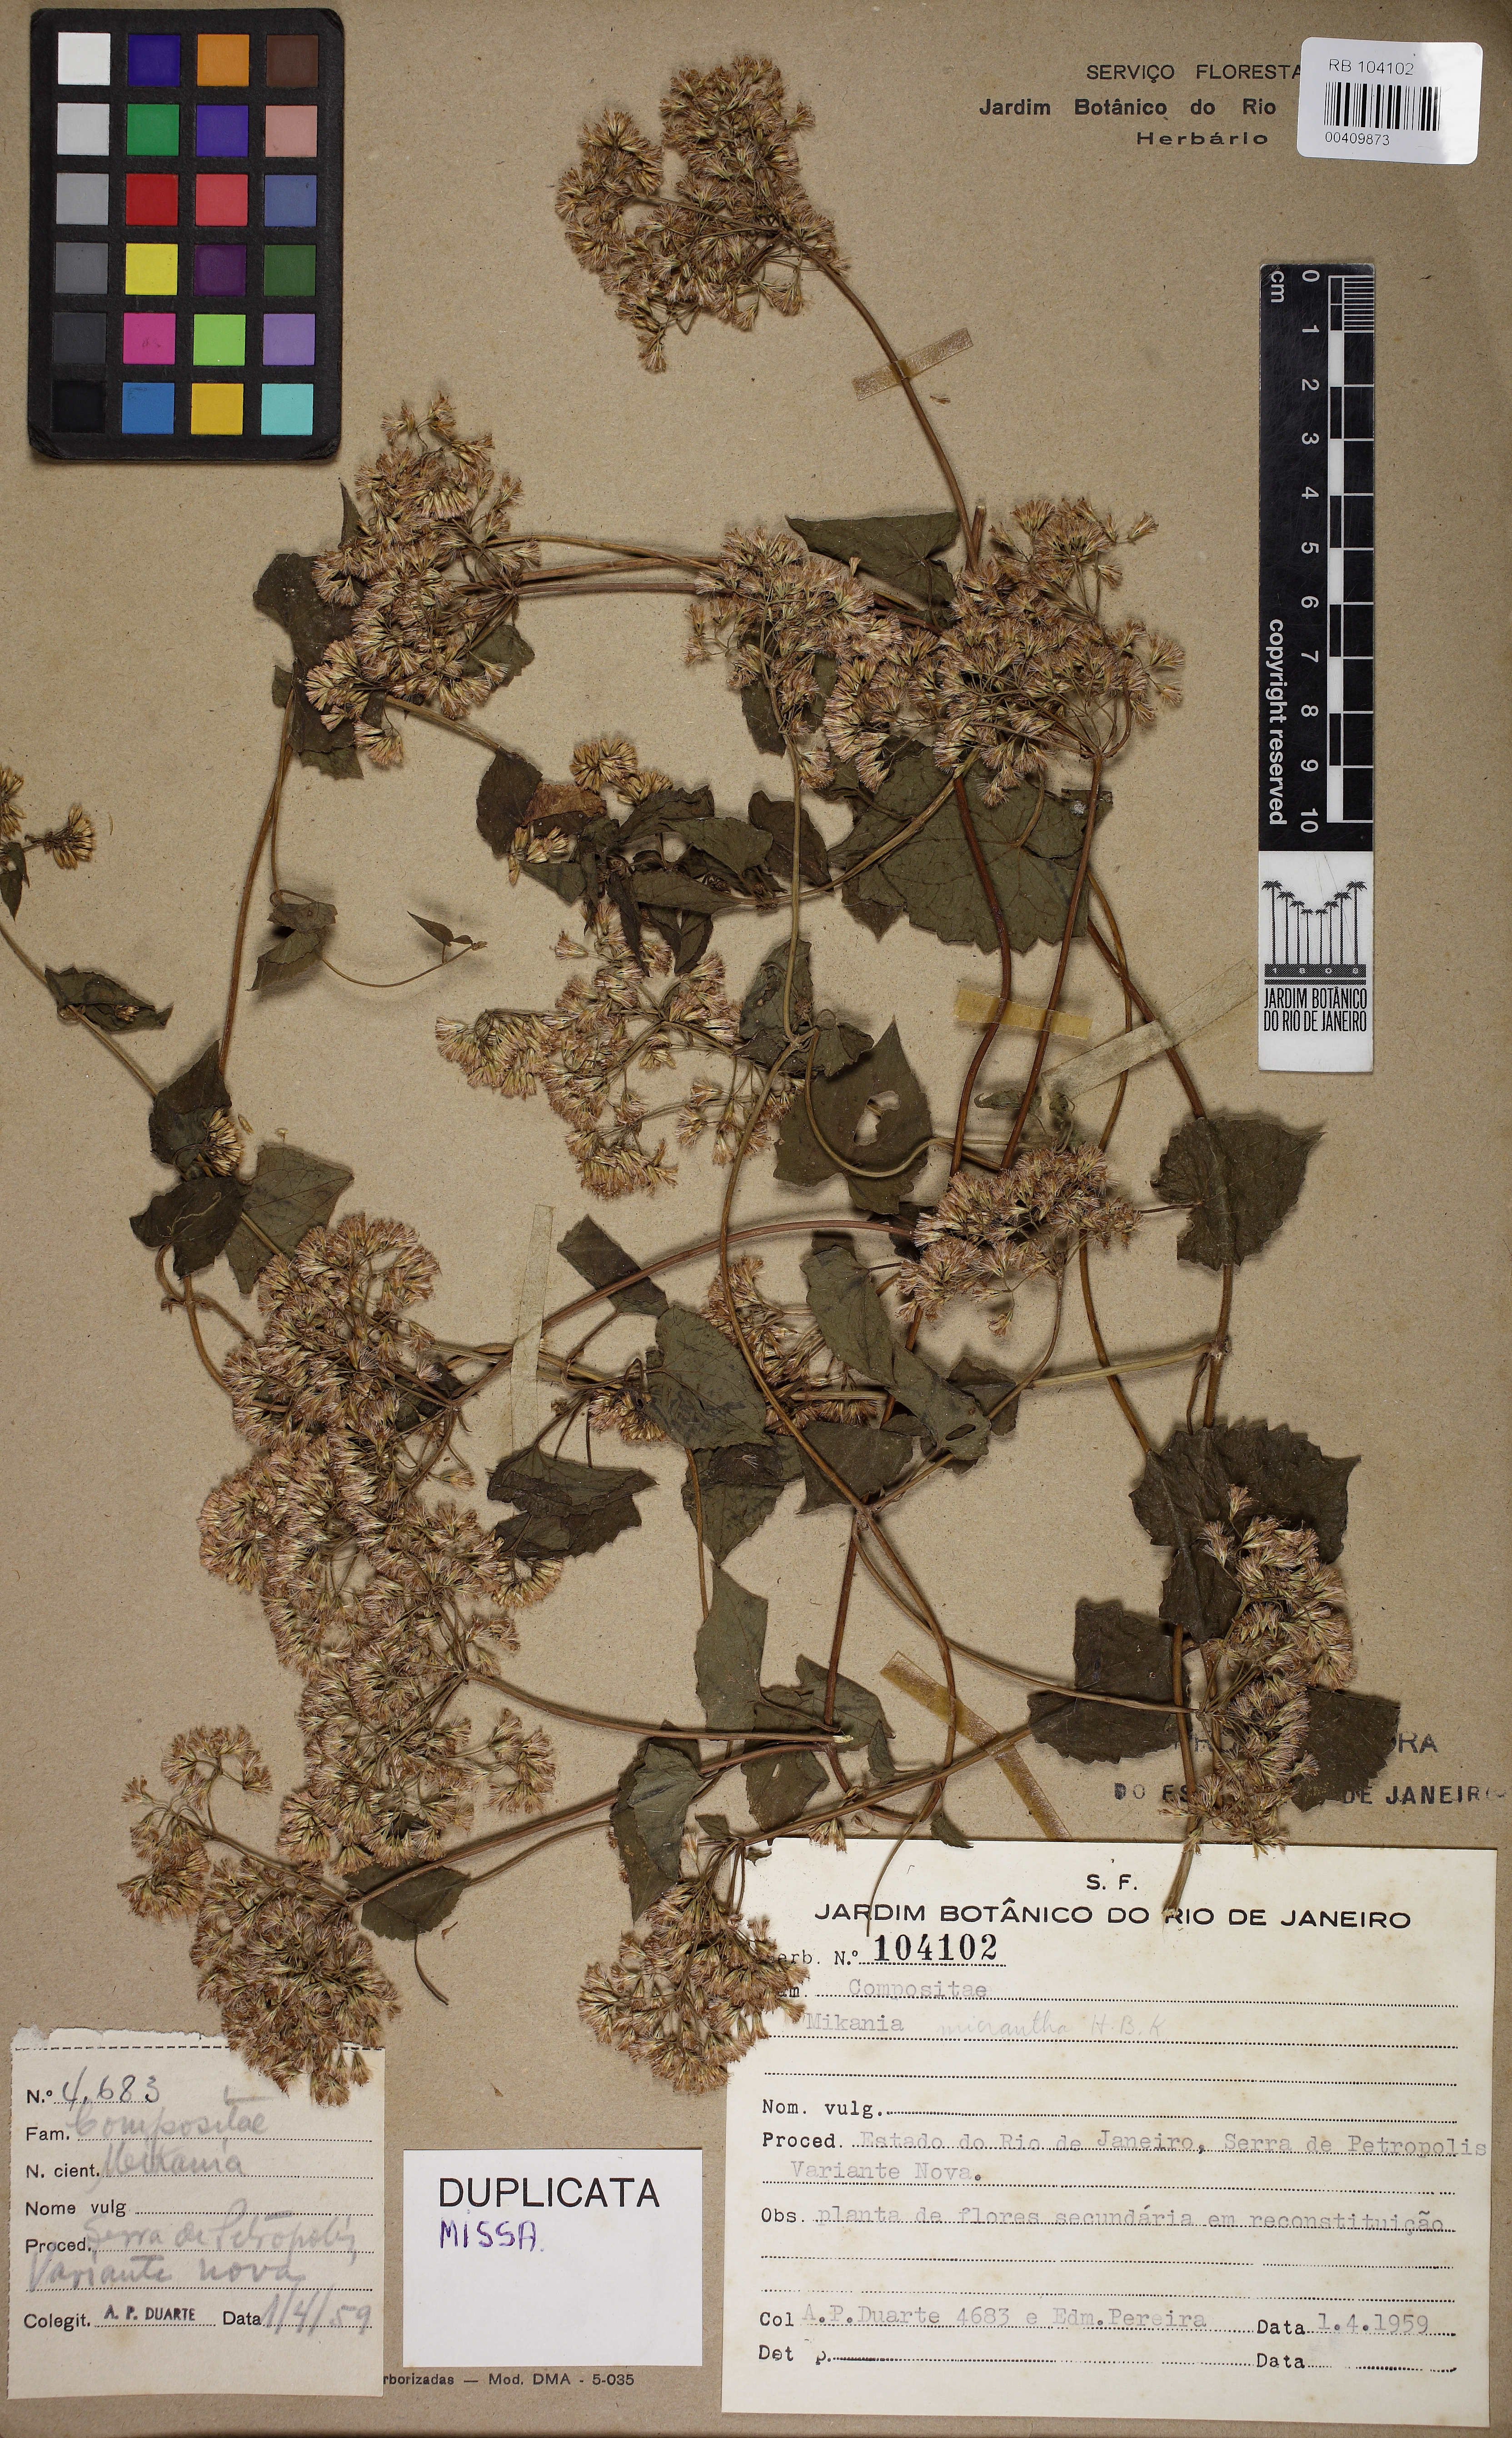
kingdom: Plantae
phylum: Tracheophyta
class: Magnoliopsida
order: Asterales
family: Asteraceae
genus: Mikania
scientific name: Mikania micrantha
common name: Mile-a-minute
